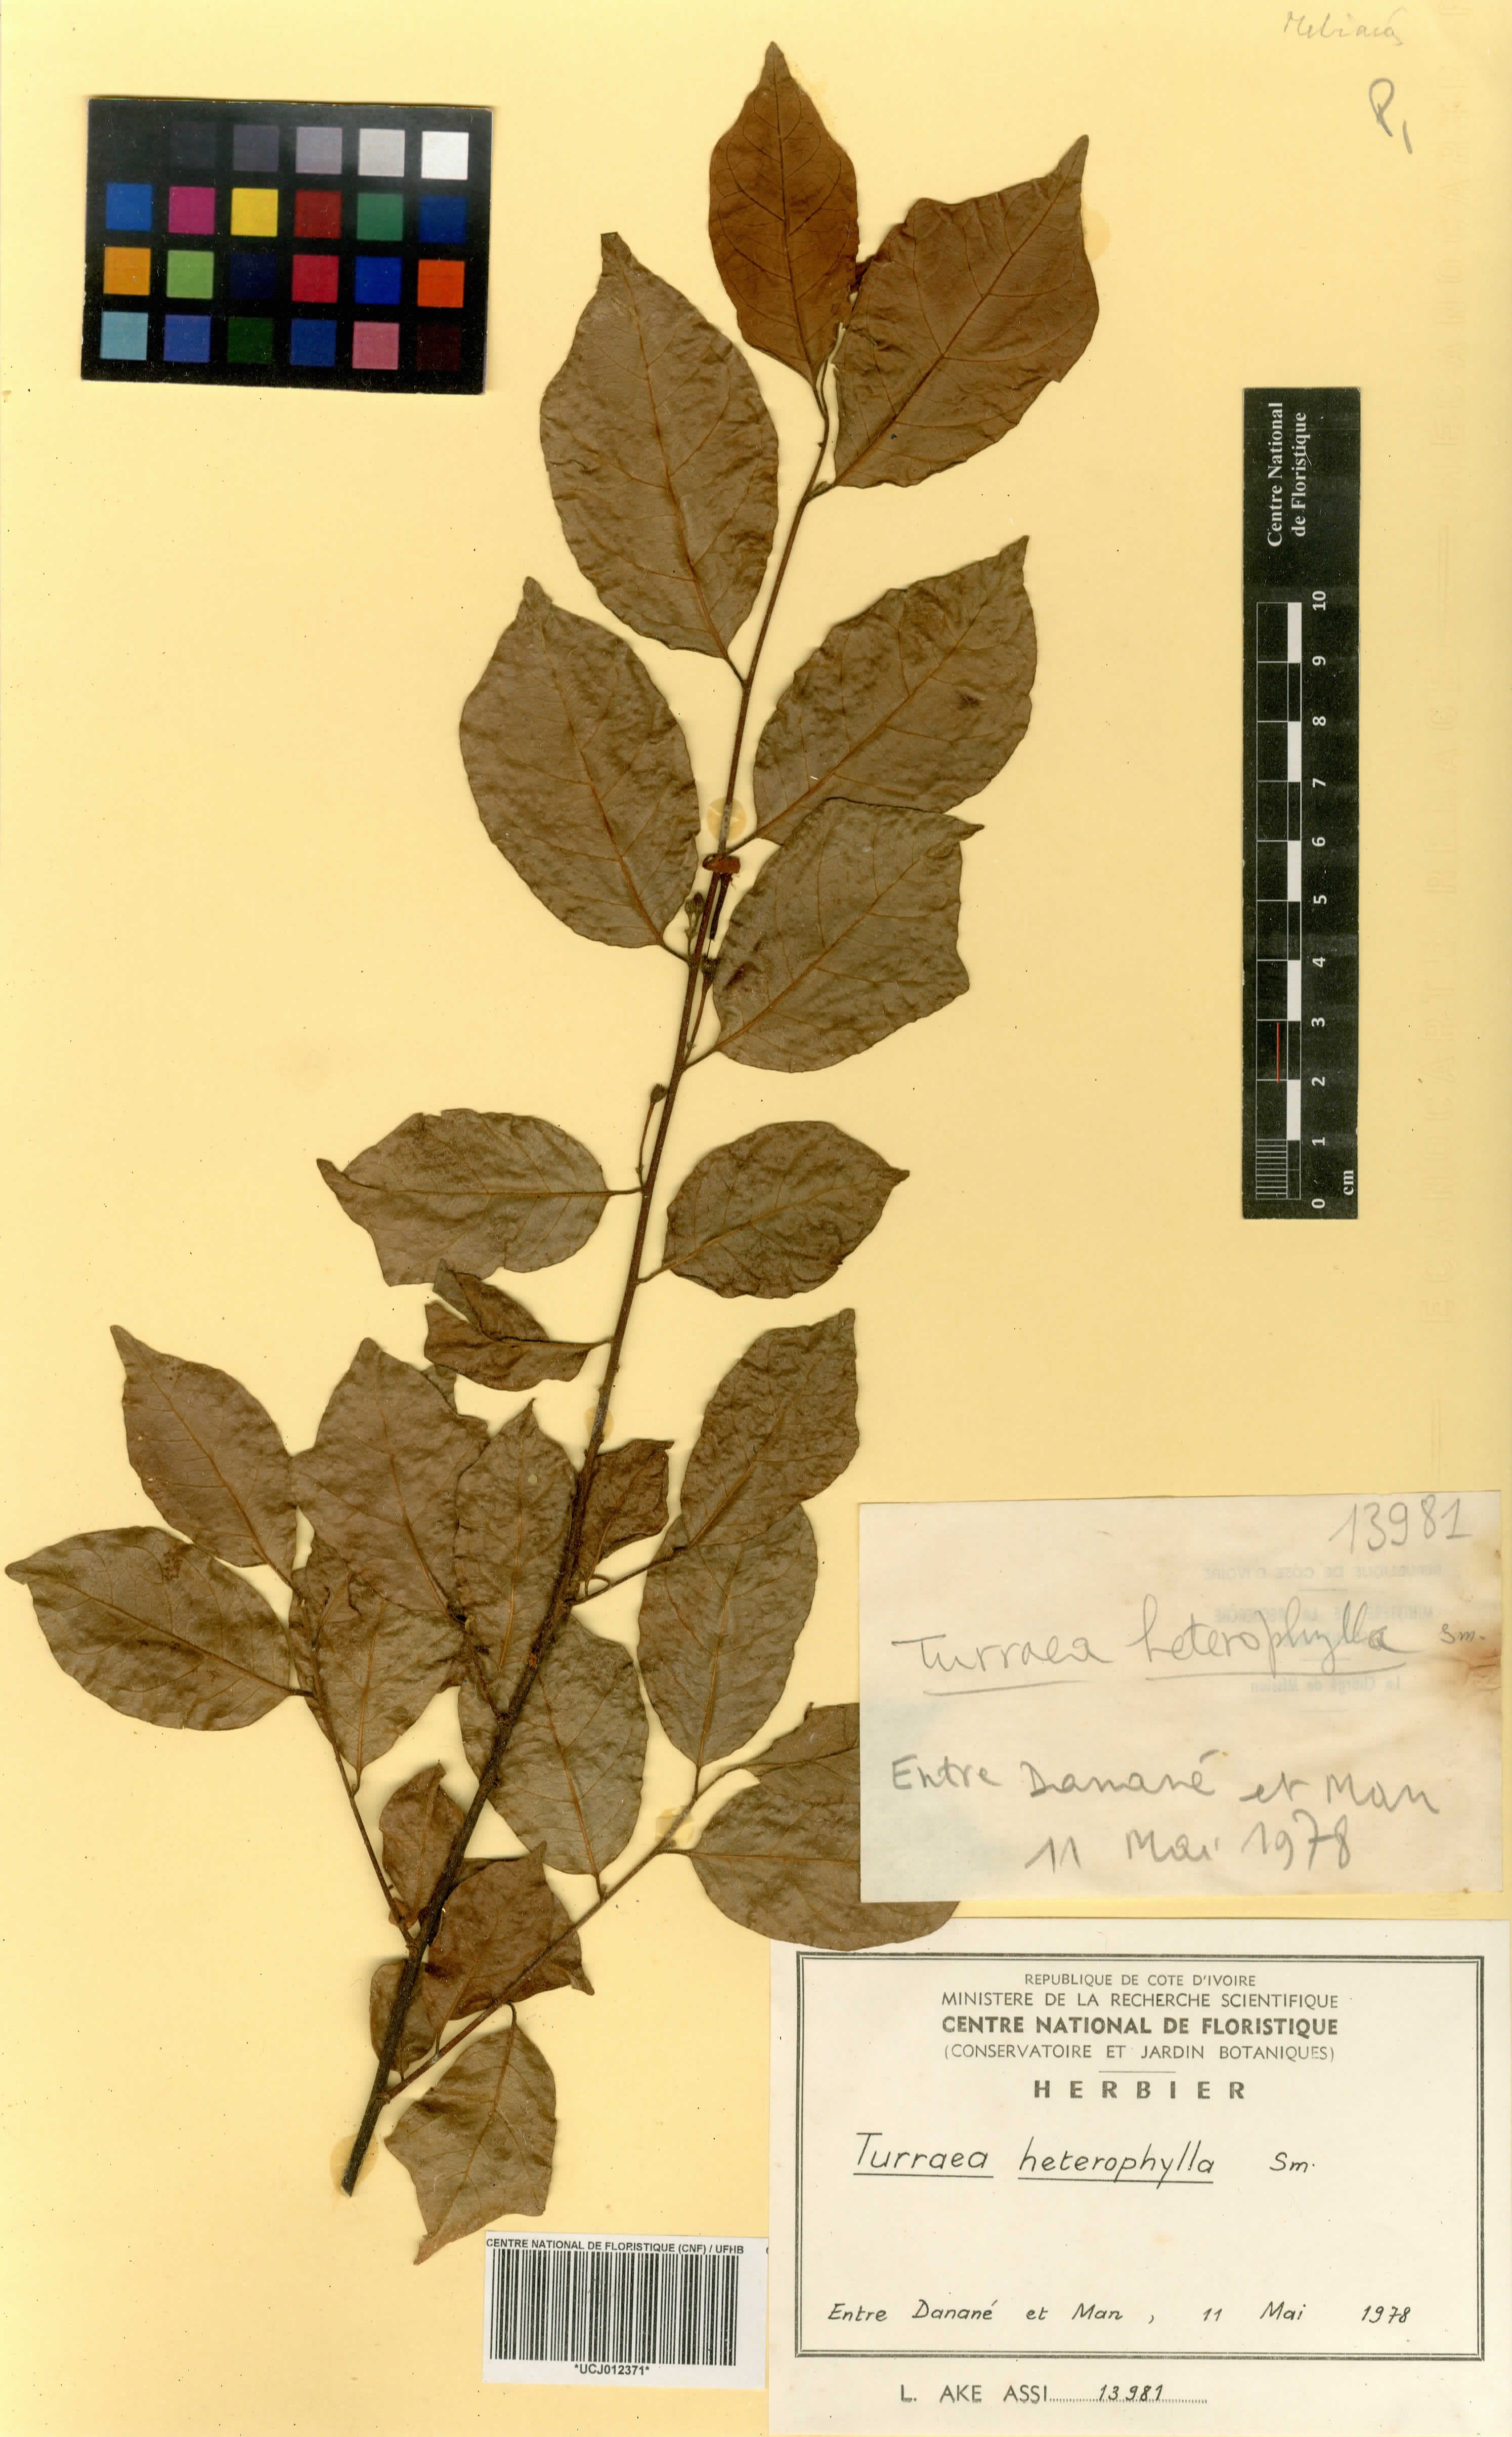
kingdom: Plantae
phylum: Tracheophyta
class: Magnoliopsida
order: Sapindales
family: Meliaceae
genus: Turraea
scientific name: Turraea heterophylla
